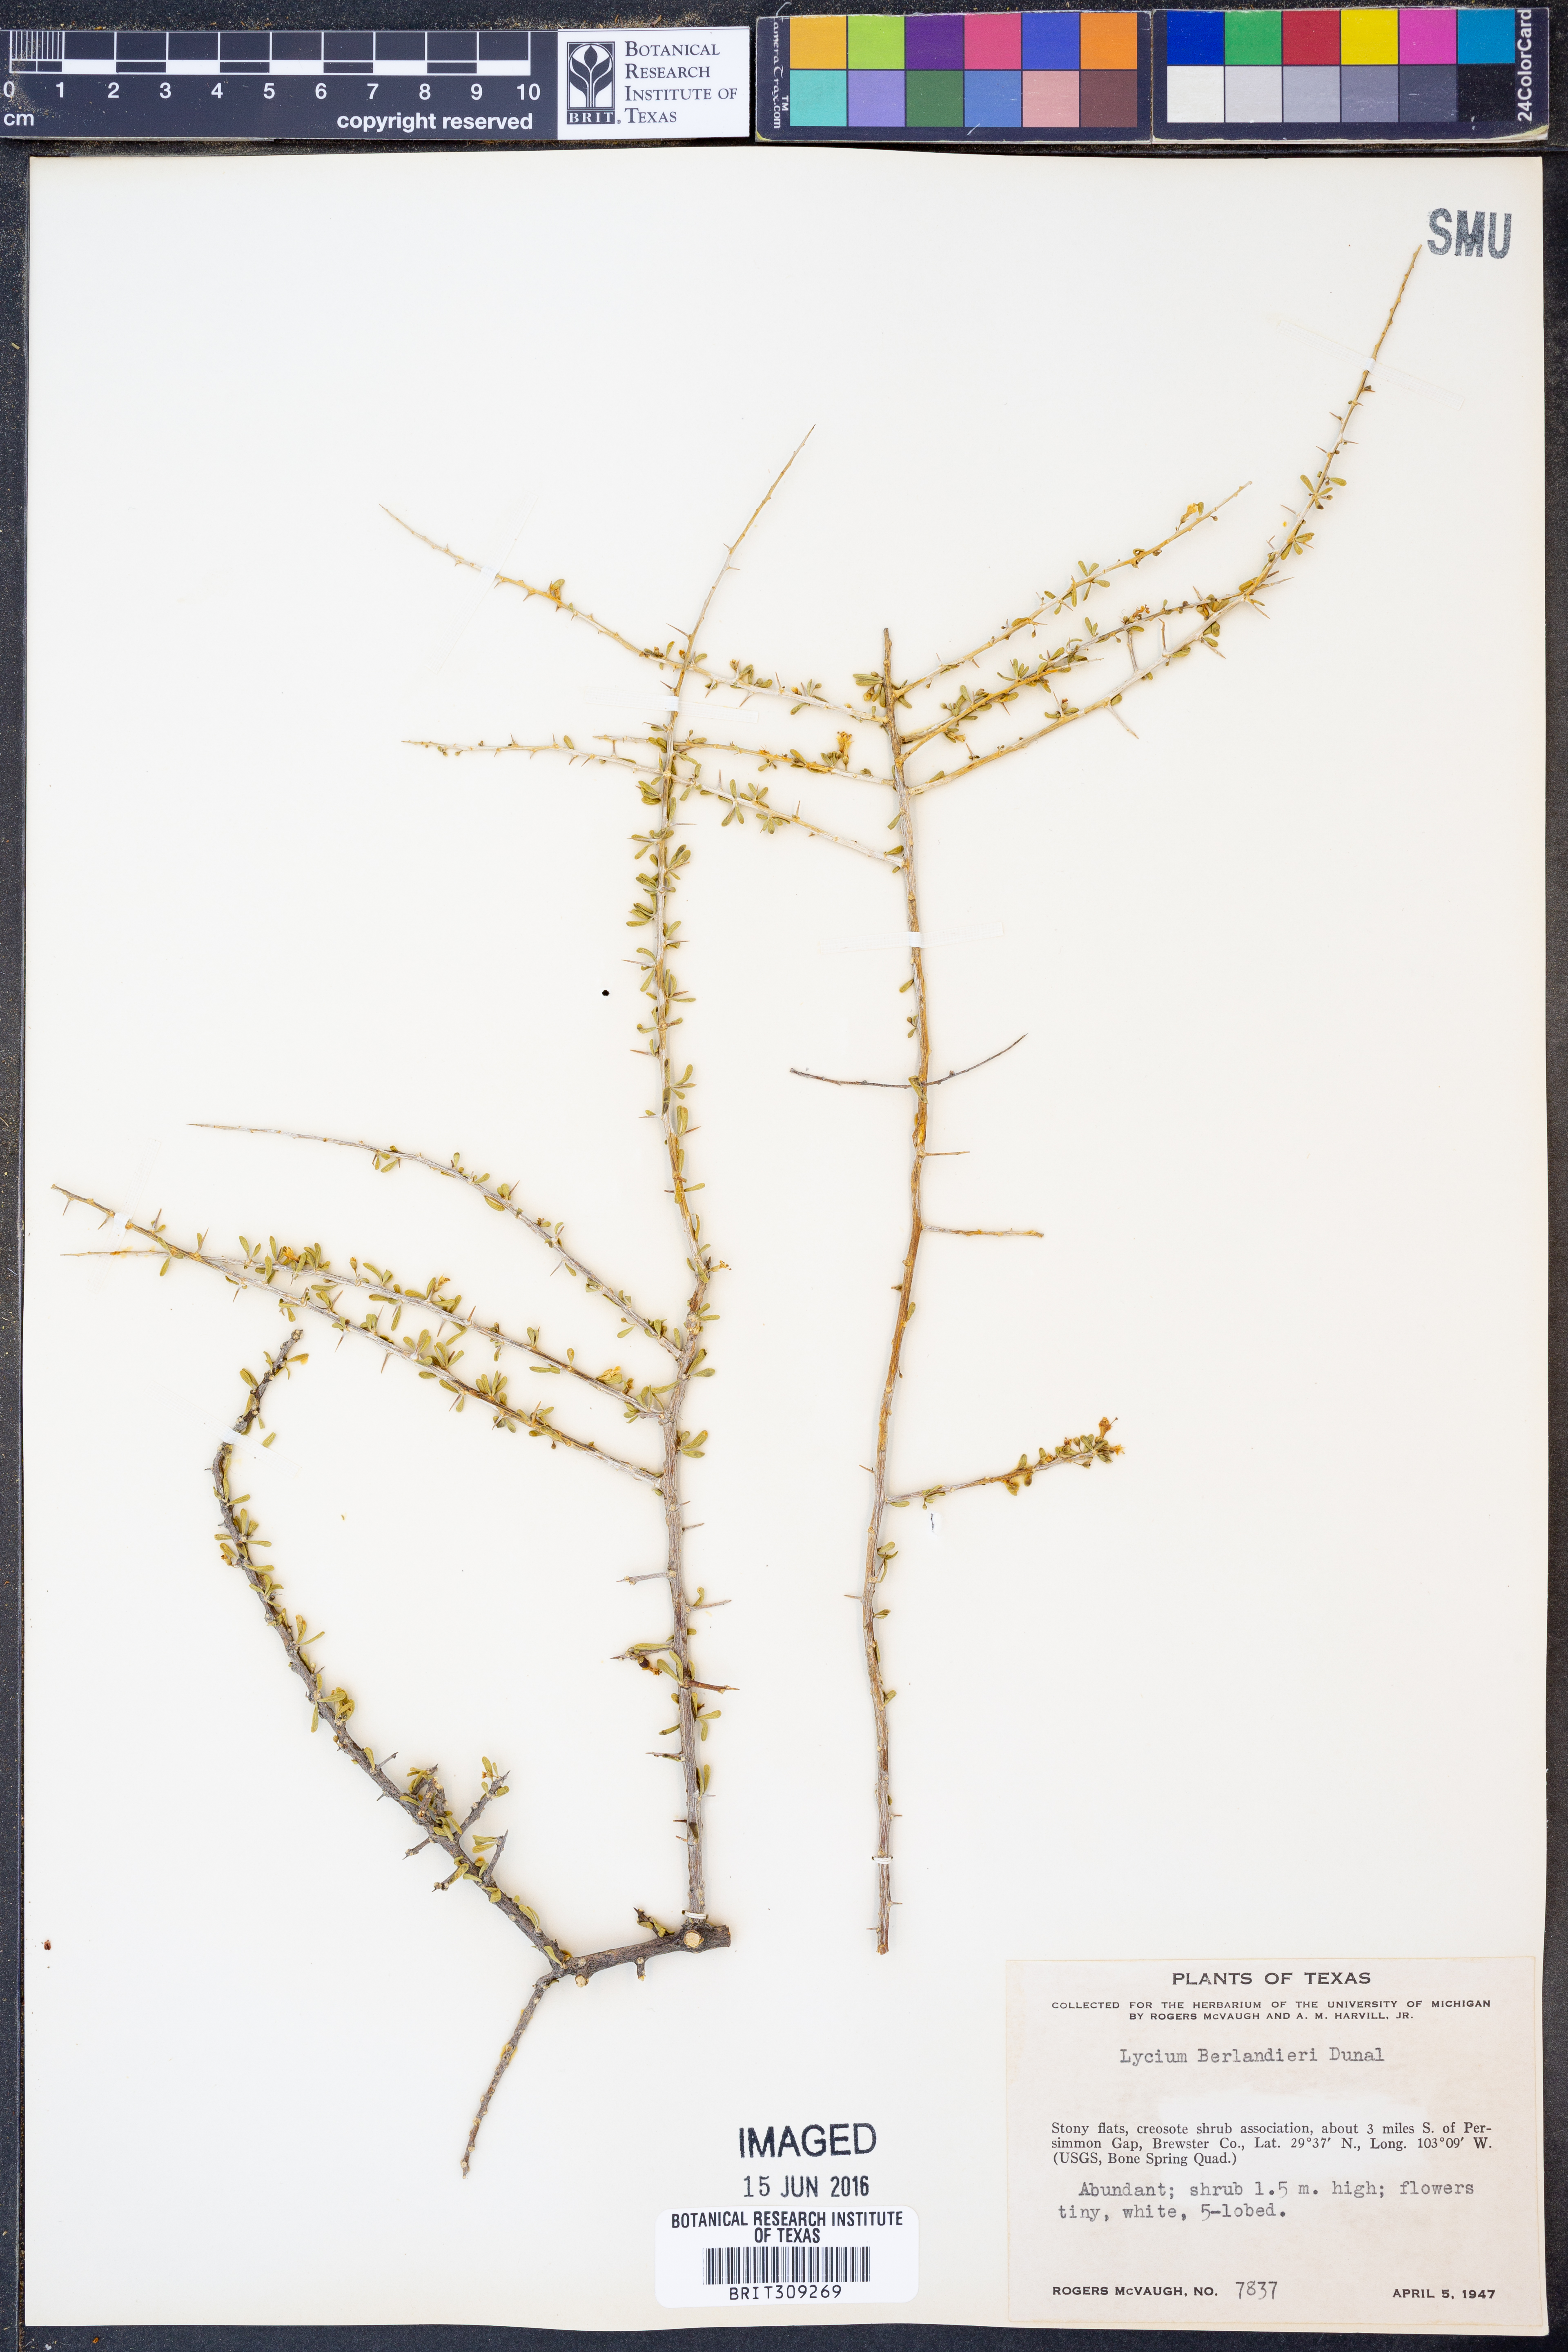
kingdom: Plantae
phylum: Tracheophyta
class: Magnoliopsida
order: Solanales
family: Solanaceae
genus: Lycium
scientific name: Lycium berlandieri
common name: Berlandier wolfberry
